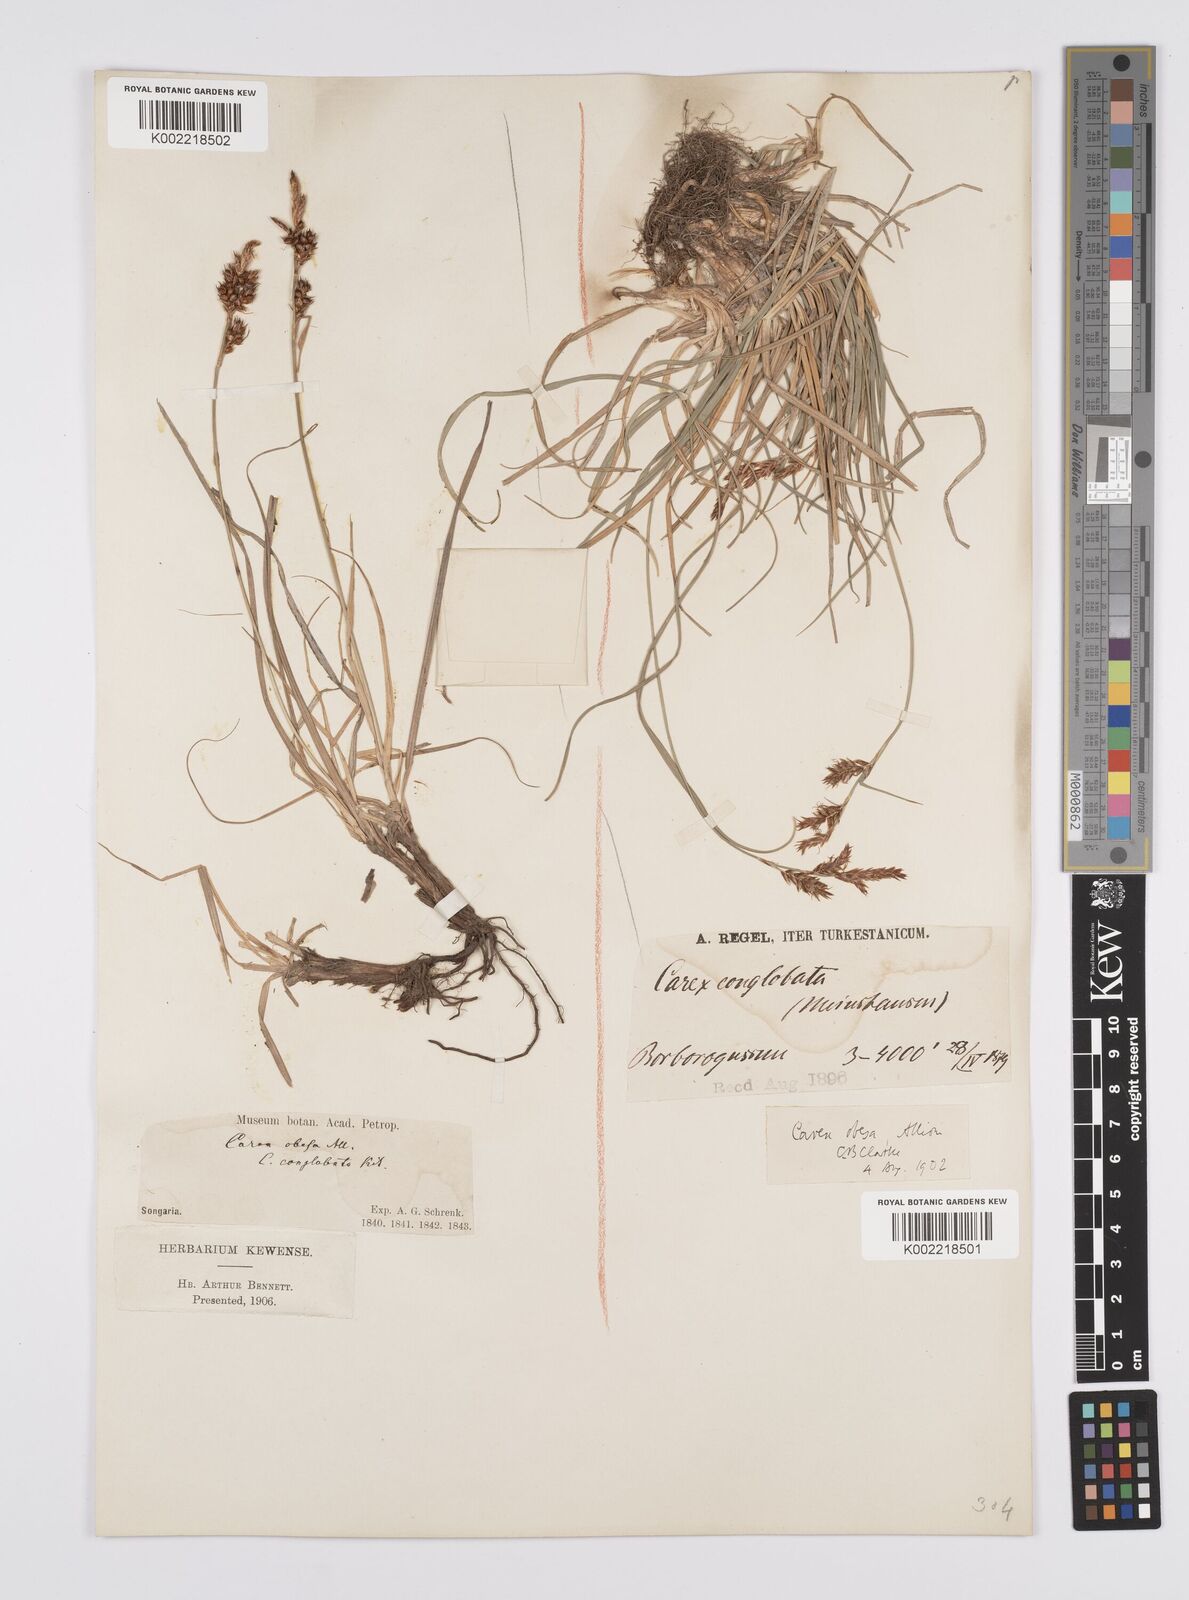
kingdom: Plantae
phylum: Tracheophyta
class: Liliopsida
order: Poales
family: Cyperaceae
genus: Carex
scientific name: Carex liparocarpos
